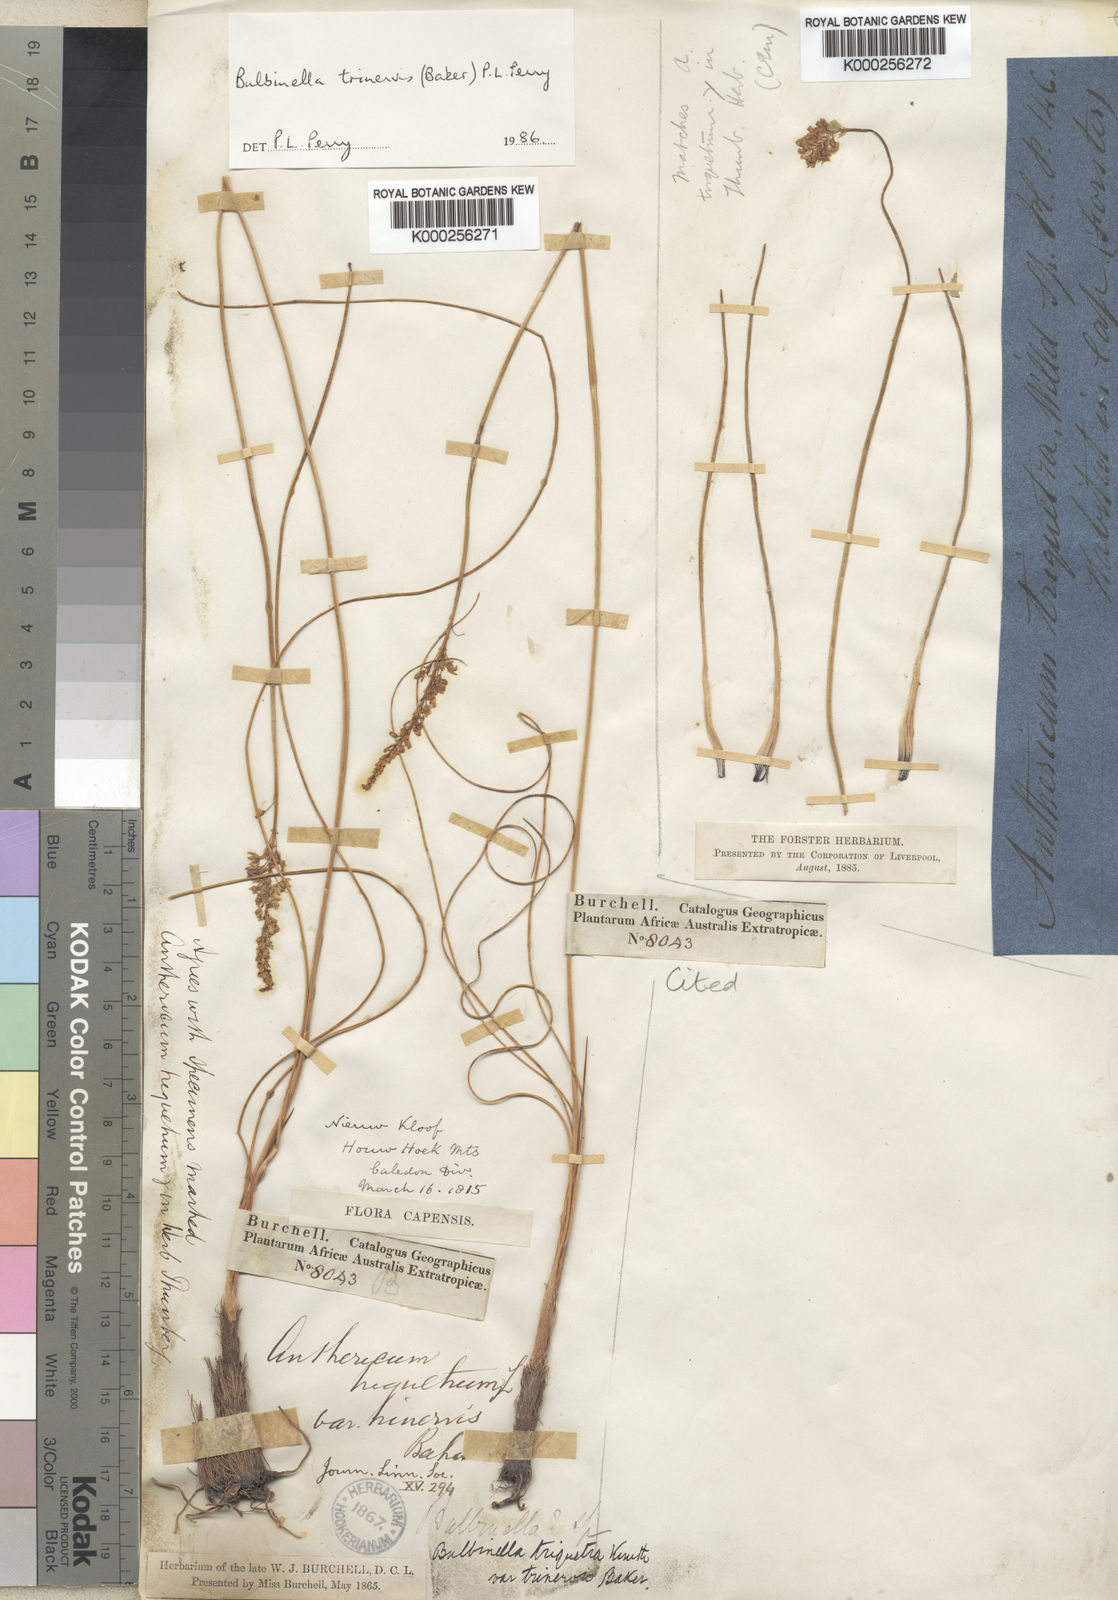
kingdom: Plantae
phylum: Tracheophyta
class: Liliopsida
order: Asparagales
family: Asphodelaceae
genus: Bulbinella
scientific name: Bulbinella trinervis
